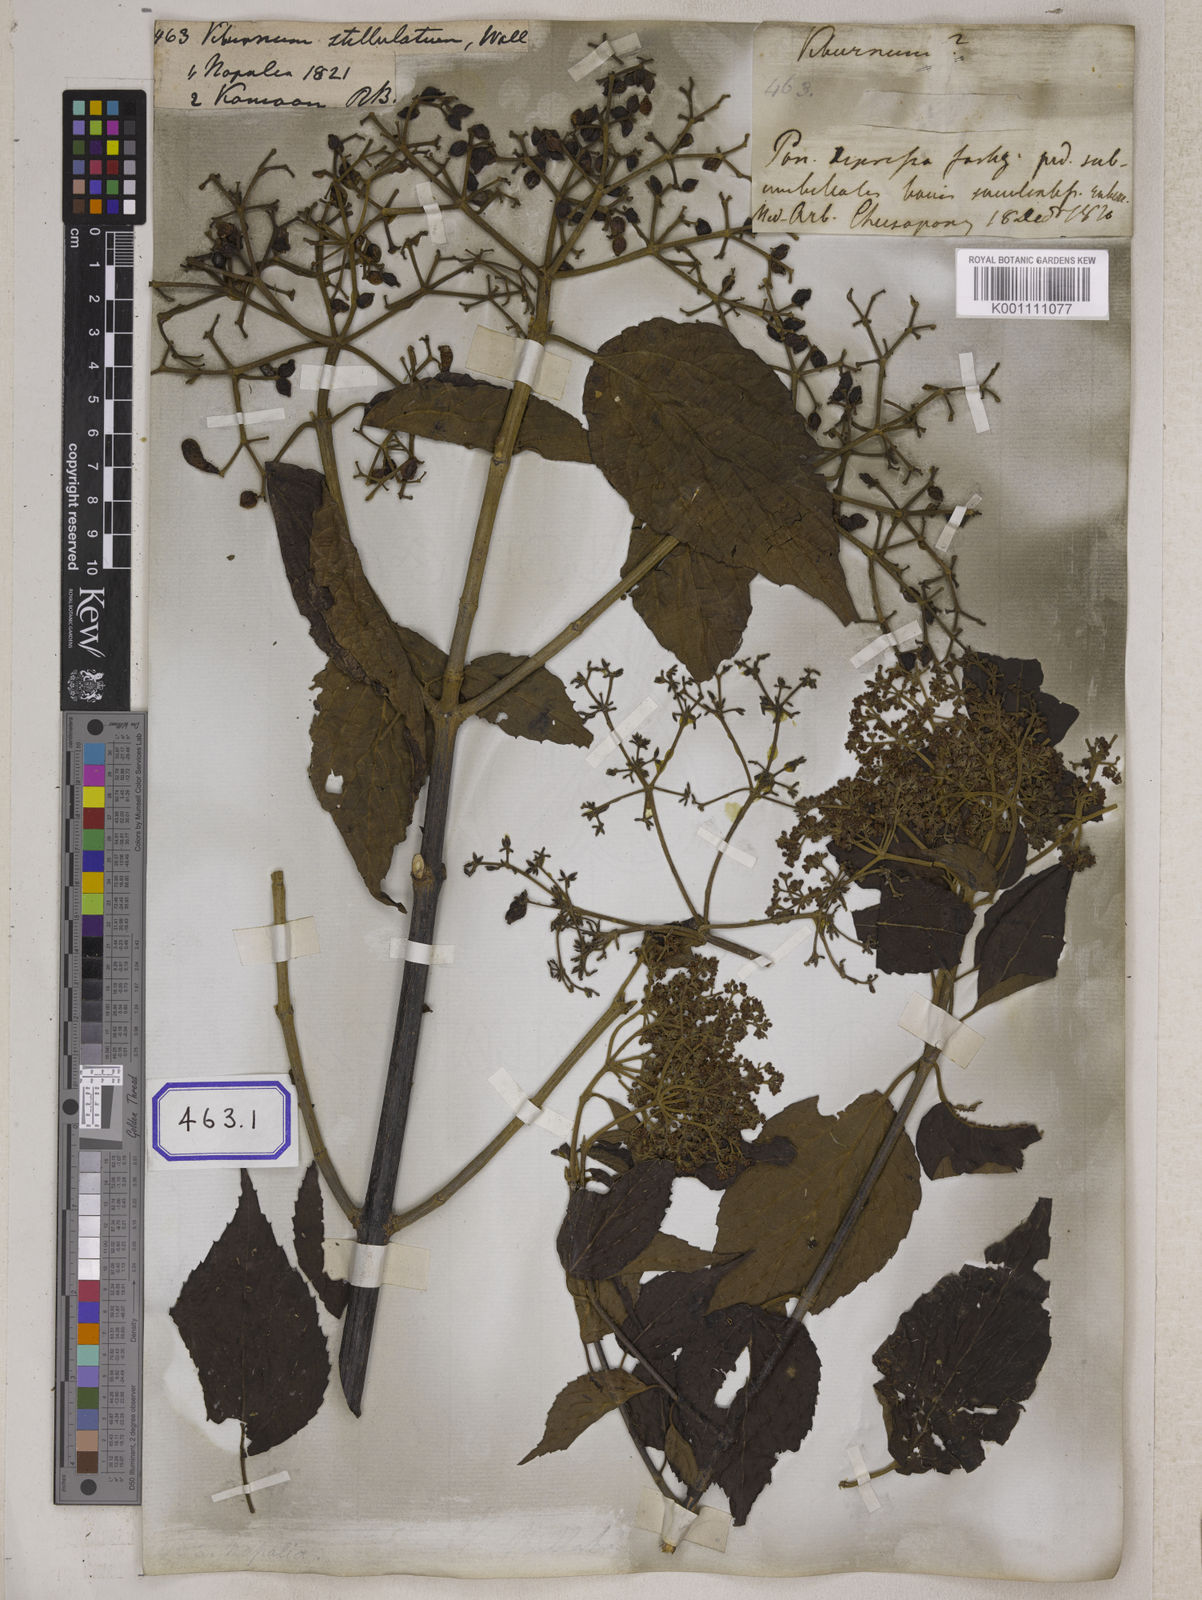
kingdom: Plantae
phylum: Tracheophyta
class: Magnoliopsida
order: Dipsacales
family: Viburnaceae
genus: Viburnum
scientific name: Viburnum
